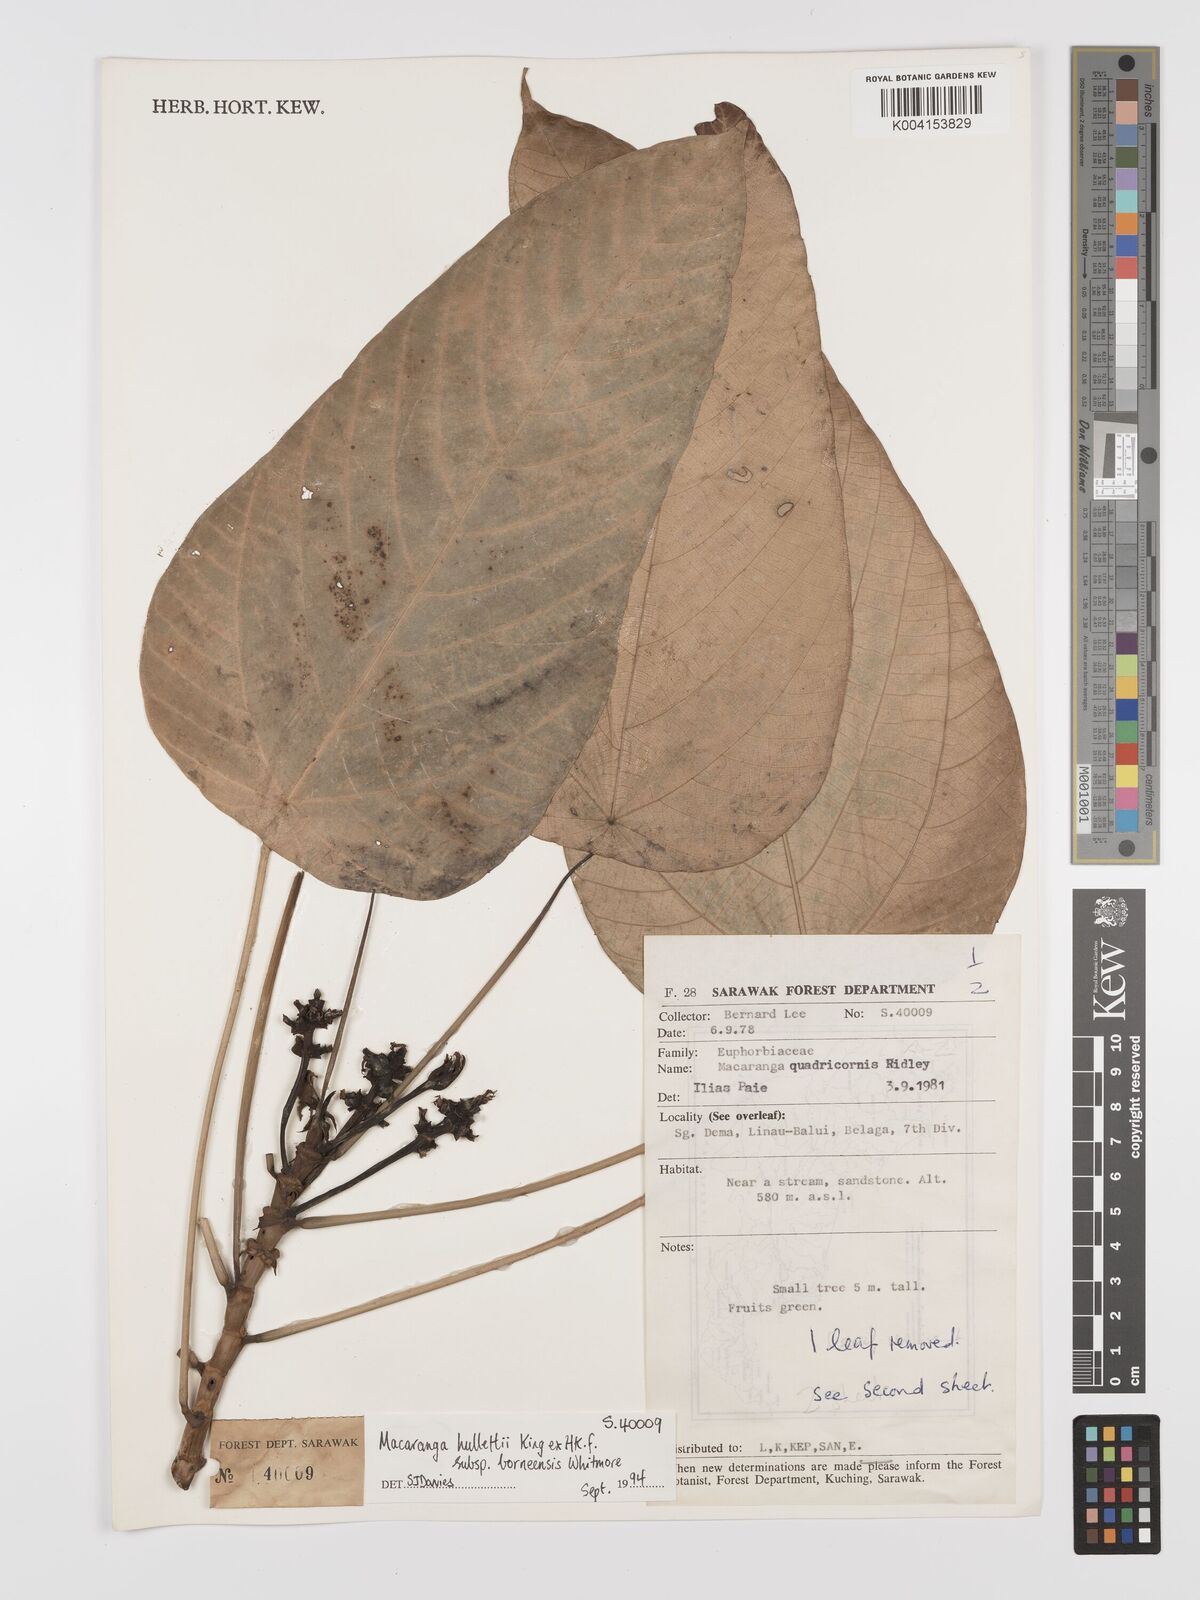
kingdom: Plantae
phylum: Tracheophyta
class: Magnoliopsida
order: Malpighiales
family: Euphorbiaceae
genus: Macaranga
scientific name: Macaranga hullettii
